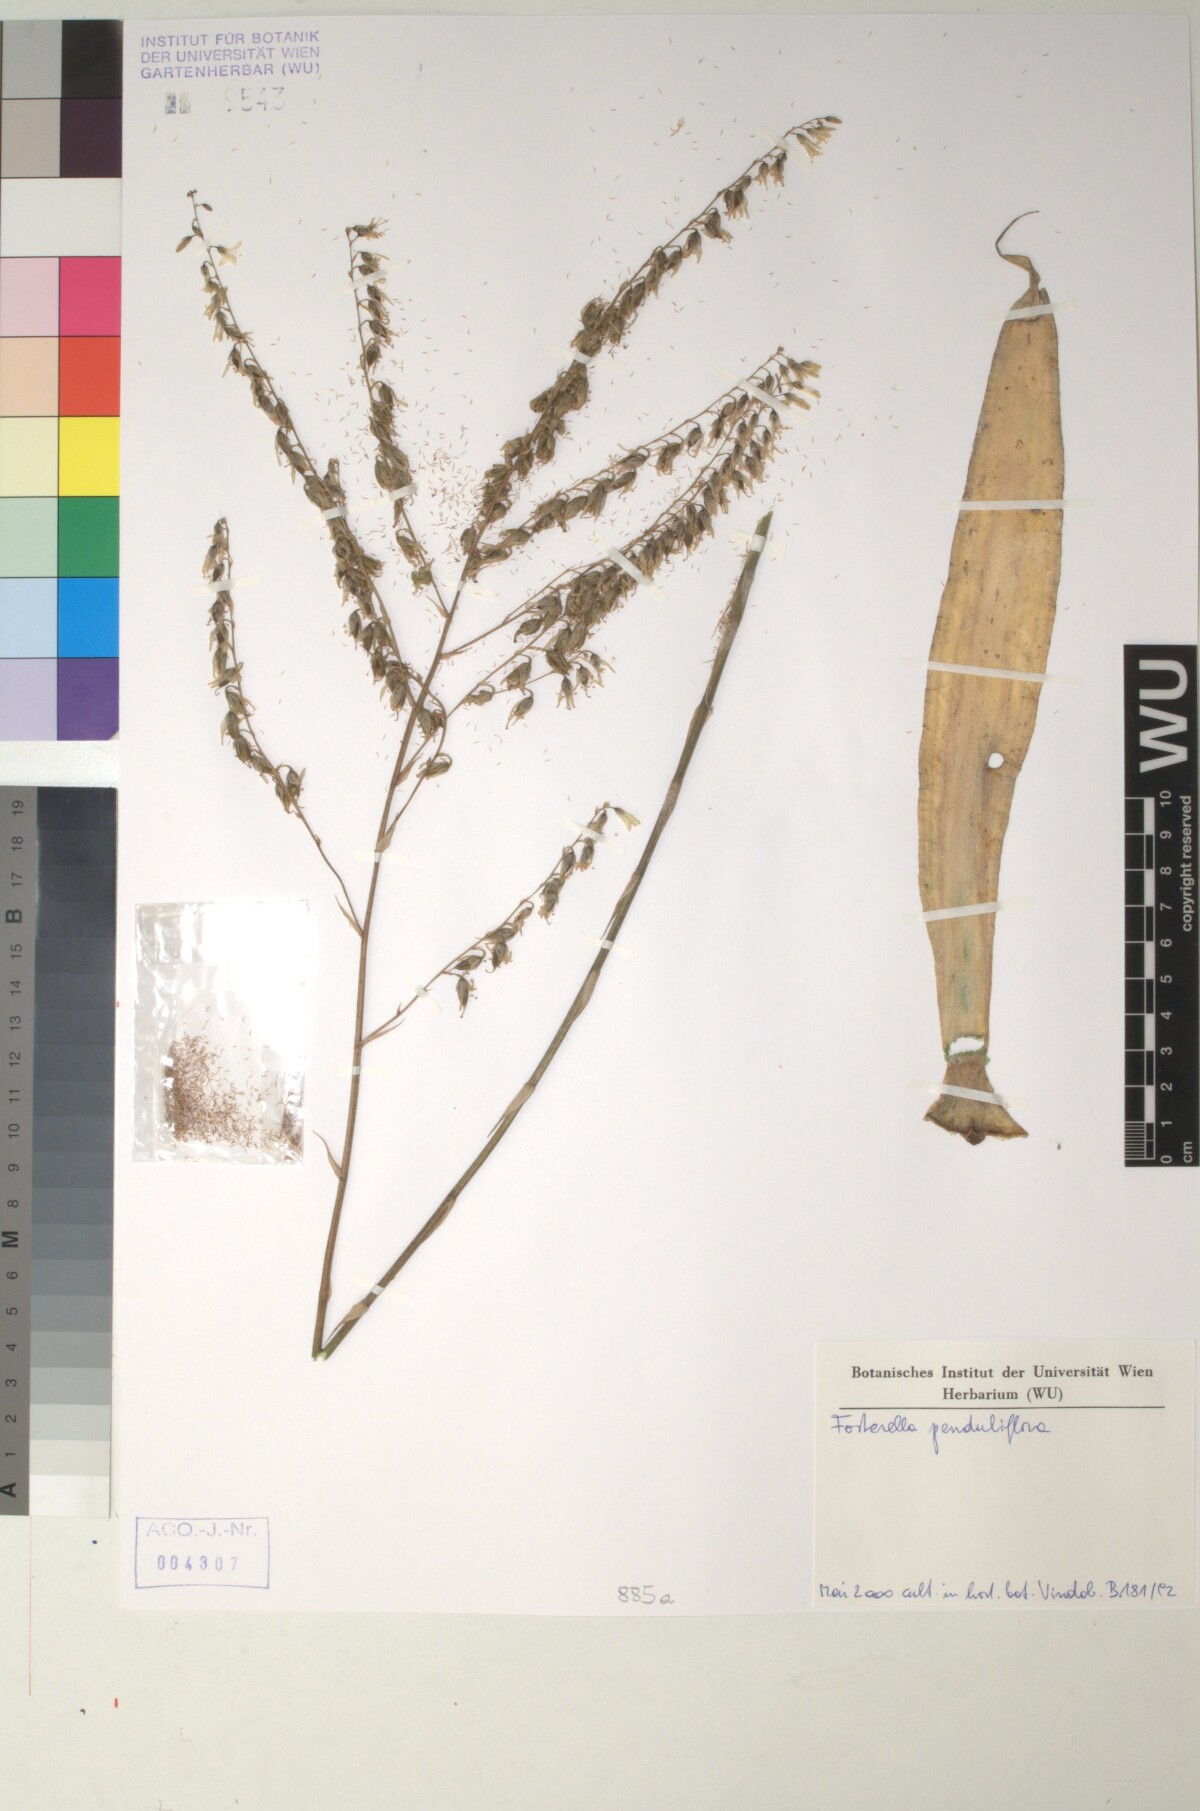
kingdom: Plantae
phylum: Tracheophyta
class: Liliopsida
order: Poales
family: Bromeliaceae
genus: Fosterella
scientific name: Fosterella penduliflora
